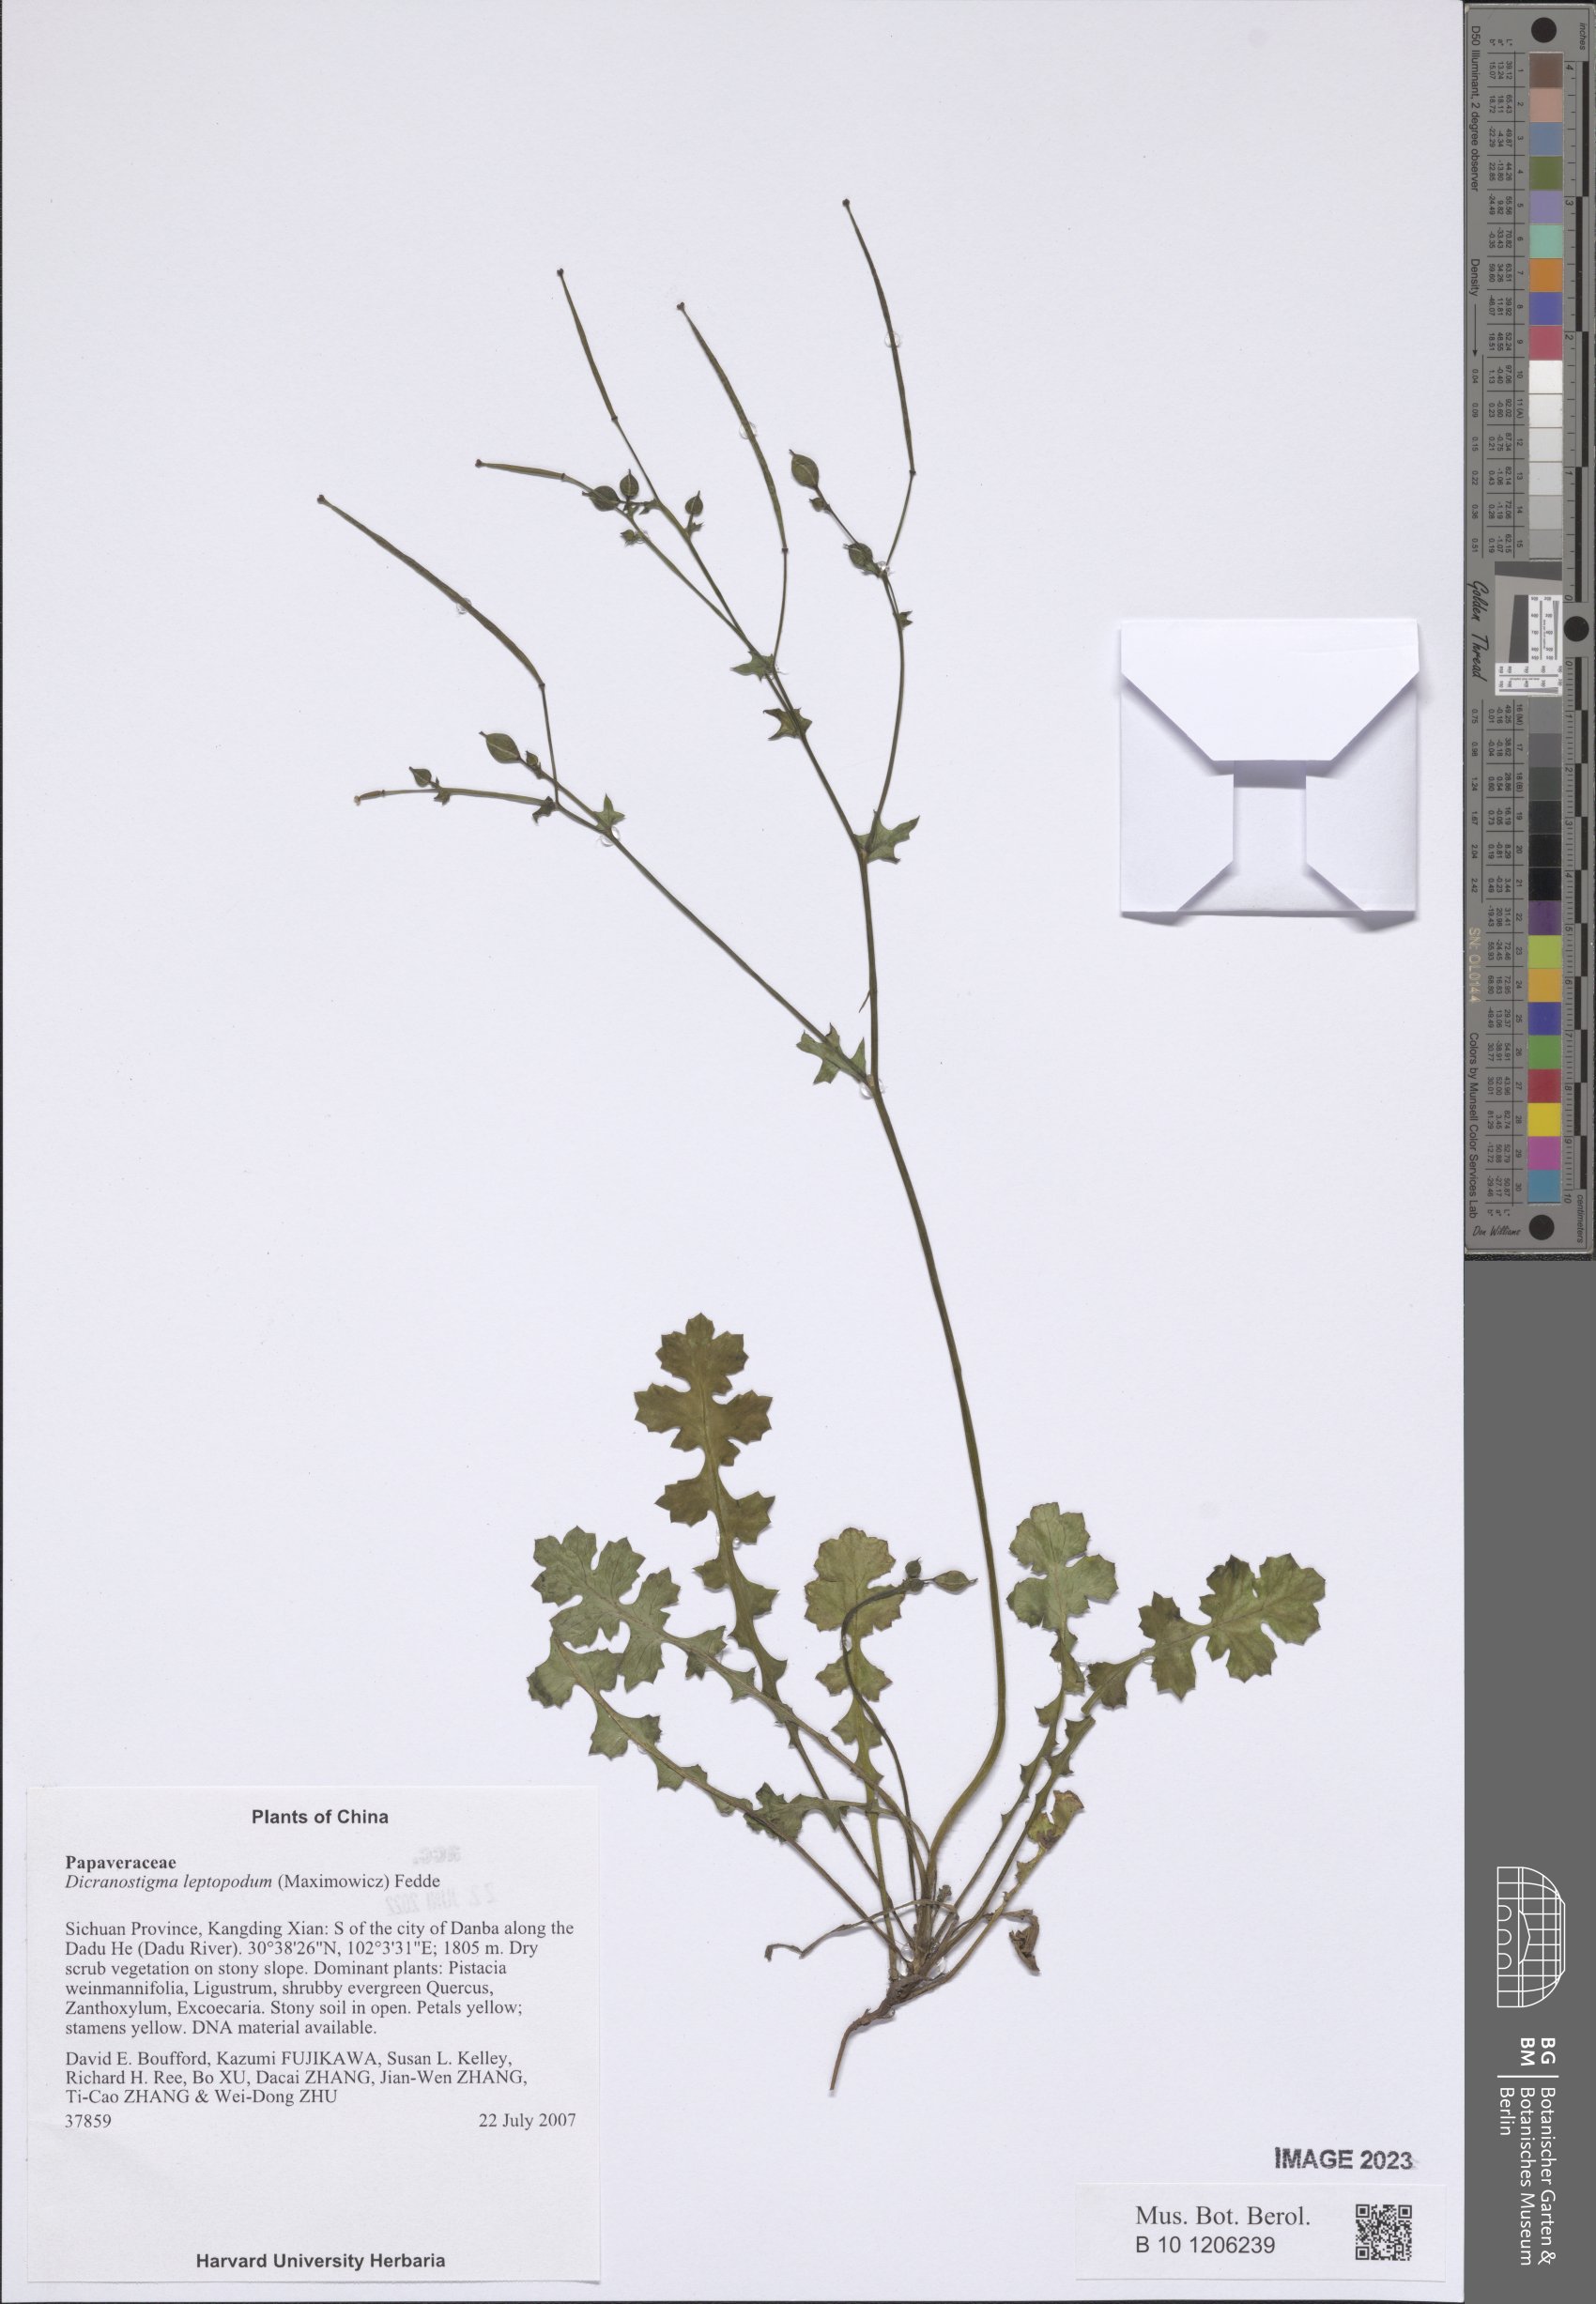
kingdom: Plantae
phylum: Tracheophyta
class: Magnoliopsida
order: Ranunculales
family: Papaveraceae
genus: Dicranostigma
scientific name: Dicranostigma leptopodum
